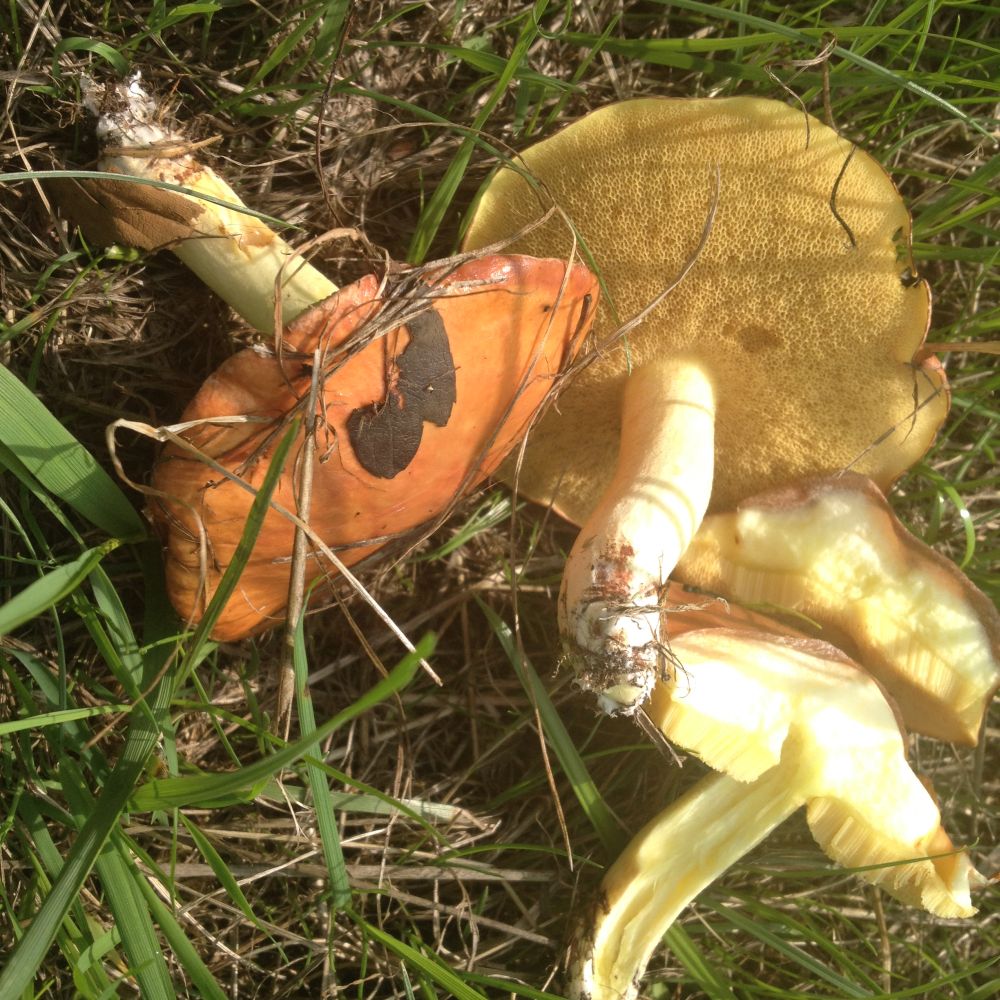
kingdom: Fungi
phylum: Basidiomycota
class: Agaricomycetes
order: Boletales
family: Suillaceae
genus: Suillus
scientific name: Suillus granulatus
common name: kornet slimrørhat
